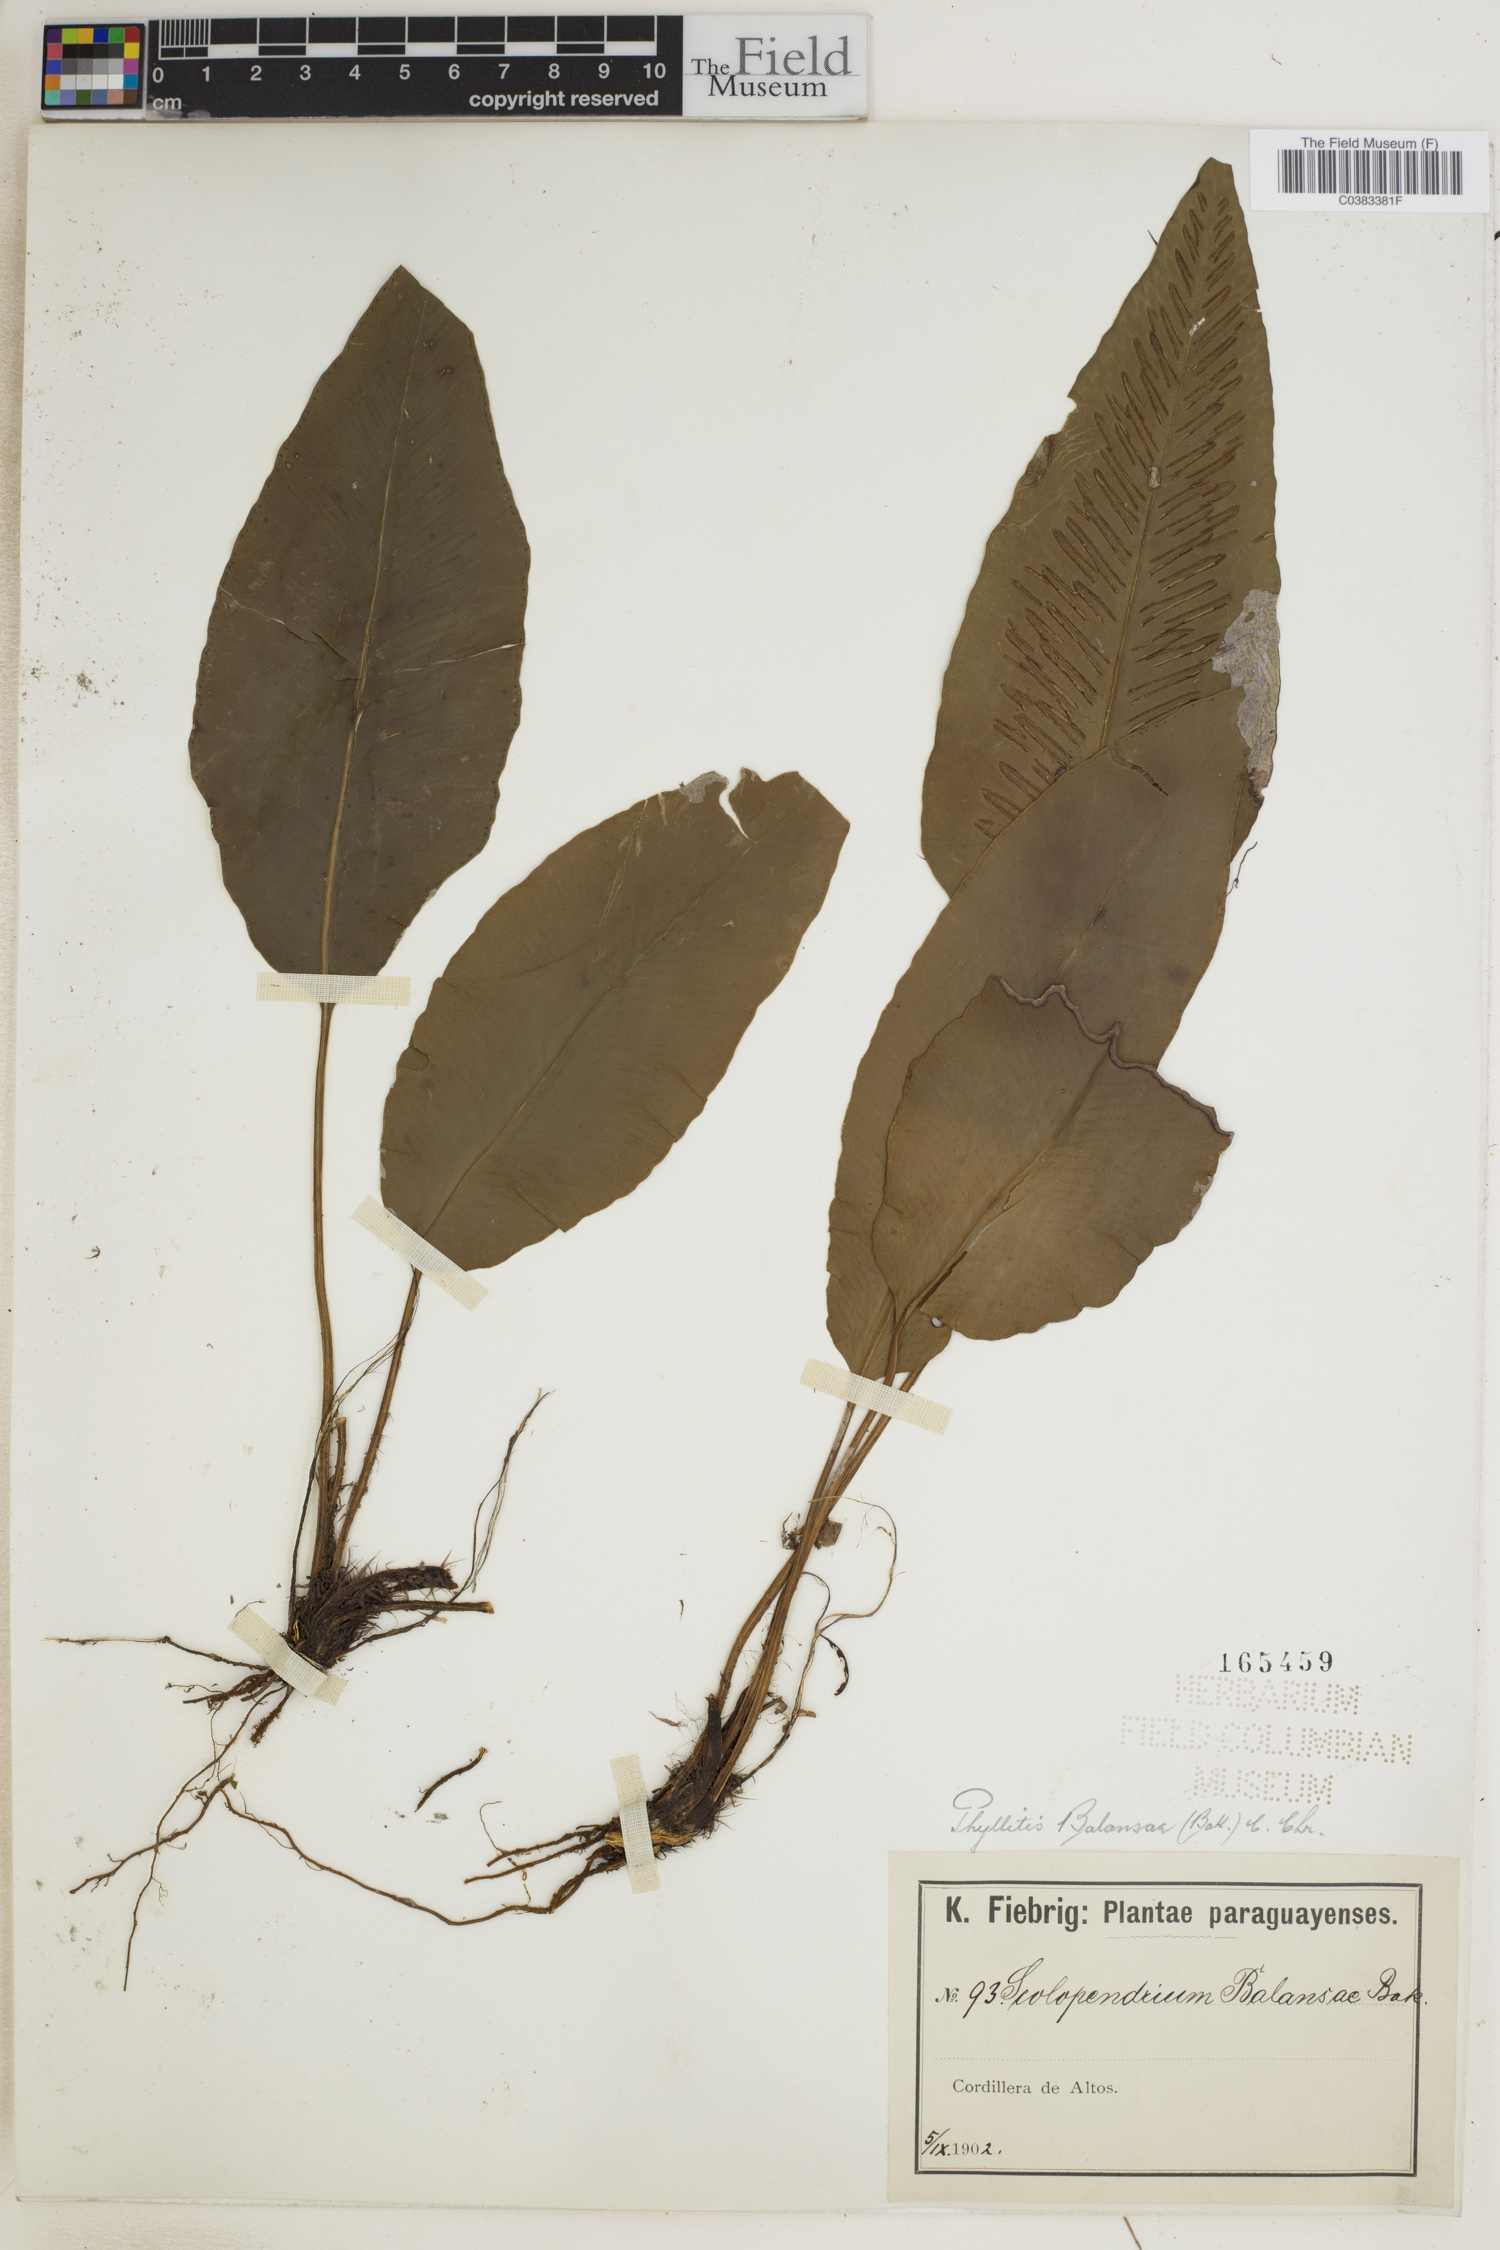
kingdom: Plantae
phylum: Tracheophyta
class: Polypodiopsida
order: Polypodiales
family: Aspleniaceae
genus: Asplenium
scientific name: Asplenium balansae
